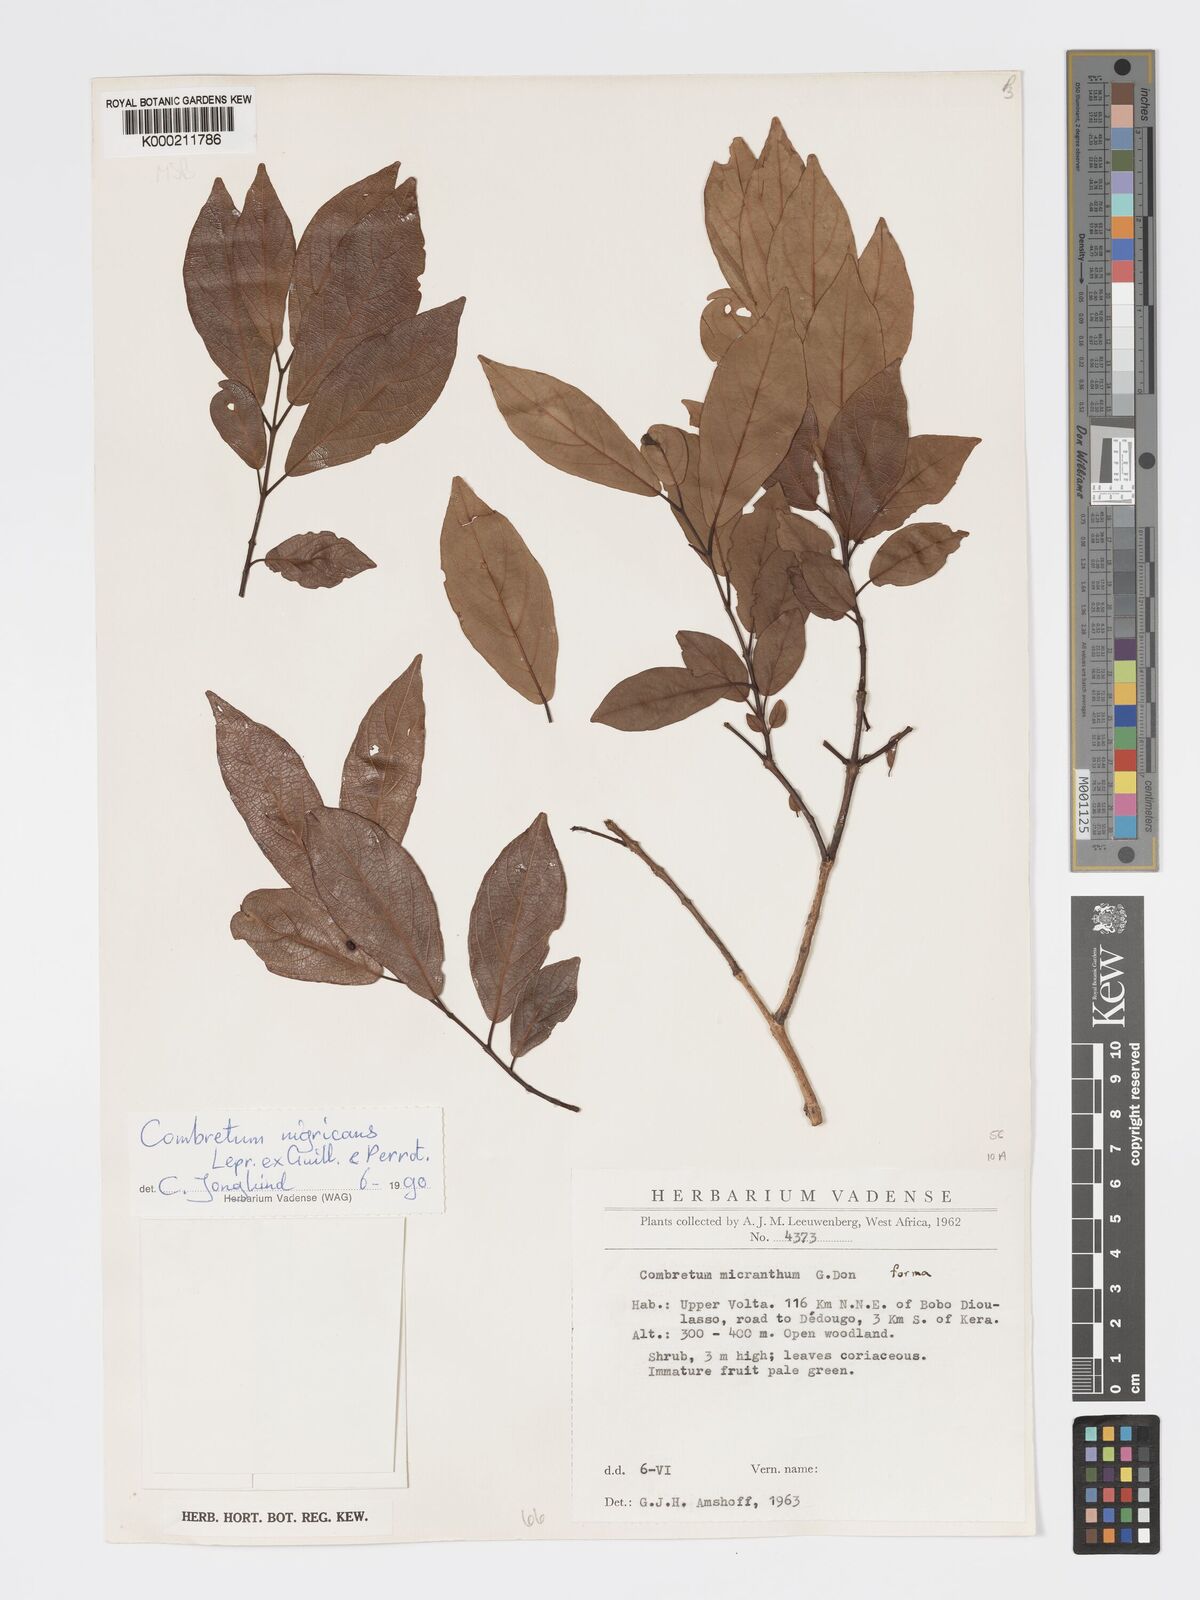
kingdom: Plantae
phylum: Tracheophyta
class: Magnoliopsida
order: Myrtales
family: Combretaceae
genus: Combretum
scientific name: Combretum nigricans
